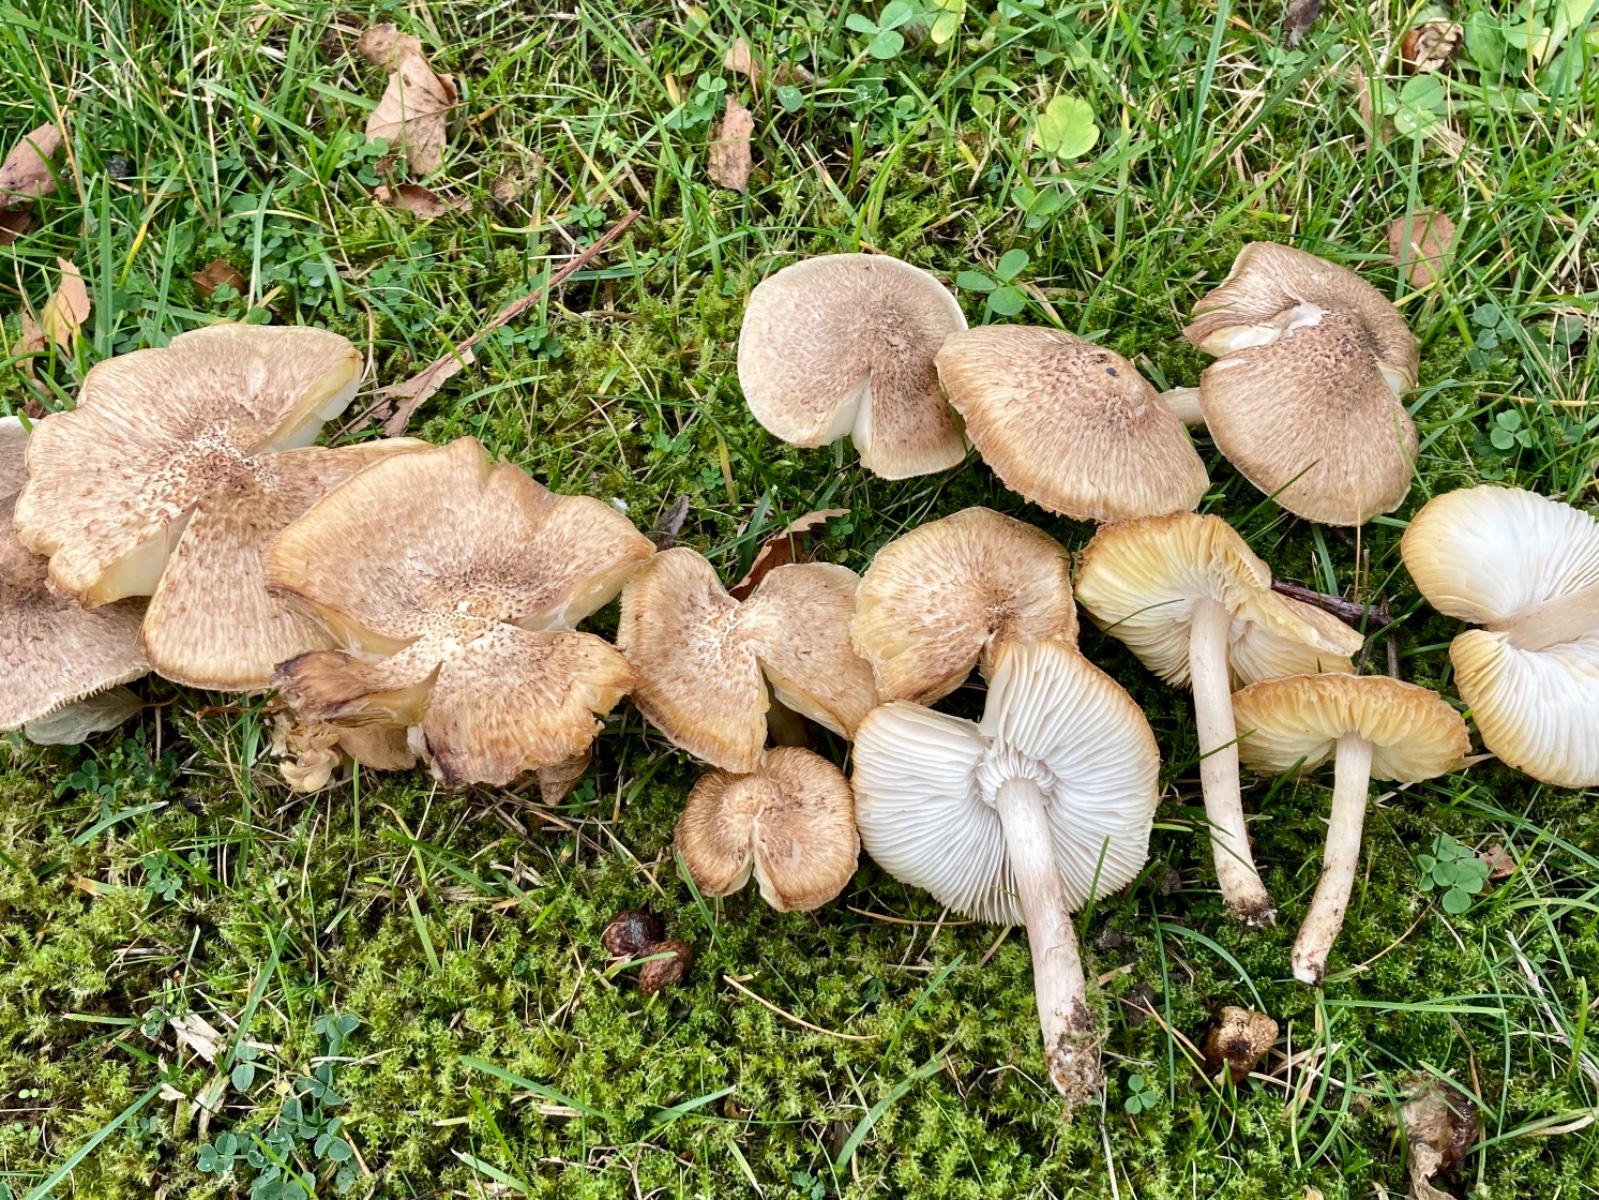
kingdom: Fungi
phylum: Basidiomycota
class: Agaricomycetes
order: Agaricales
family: Tricholomataceae
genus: Tricholoma
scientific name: Tricholoma scalpturatum
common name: gulplettet ridderhat
